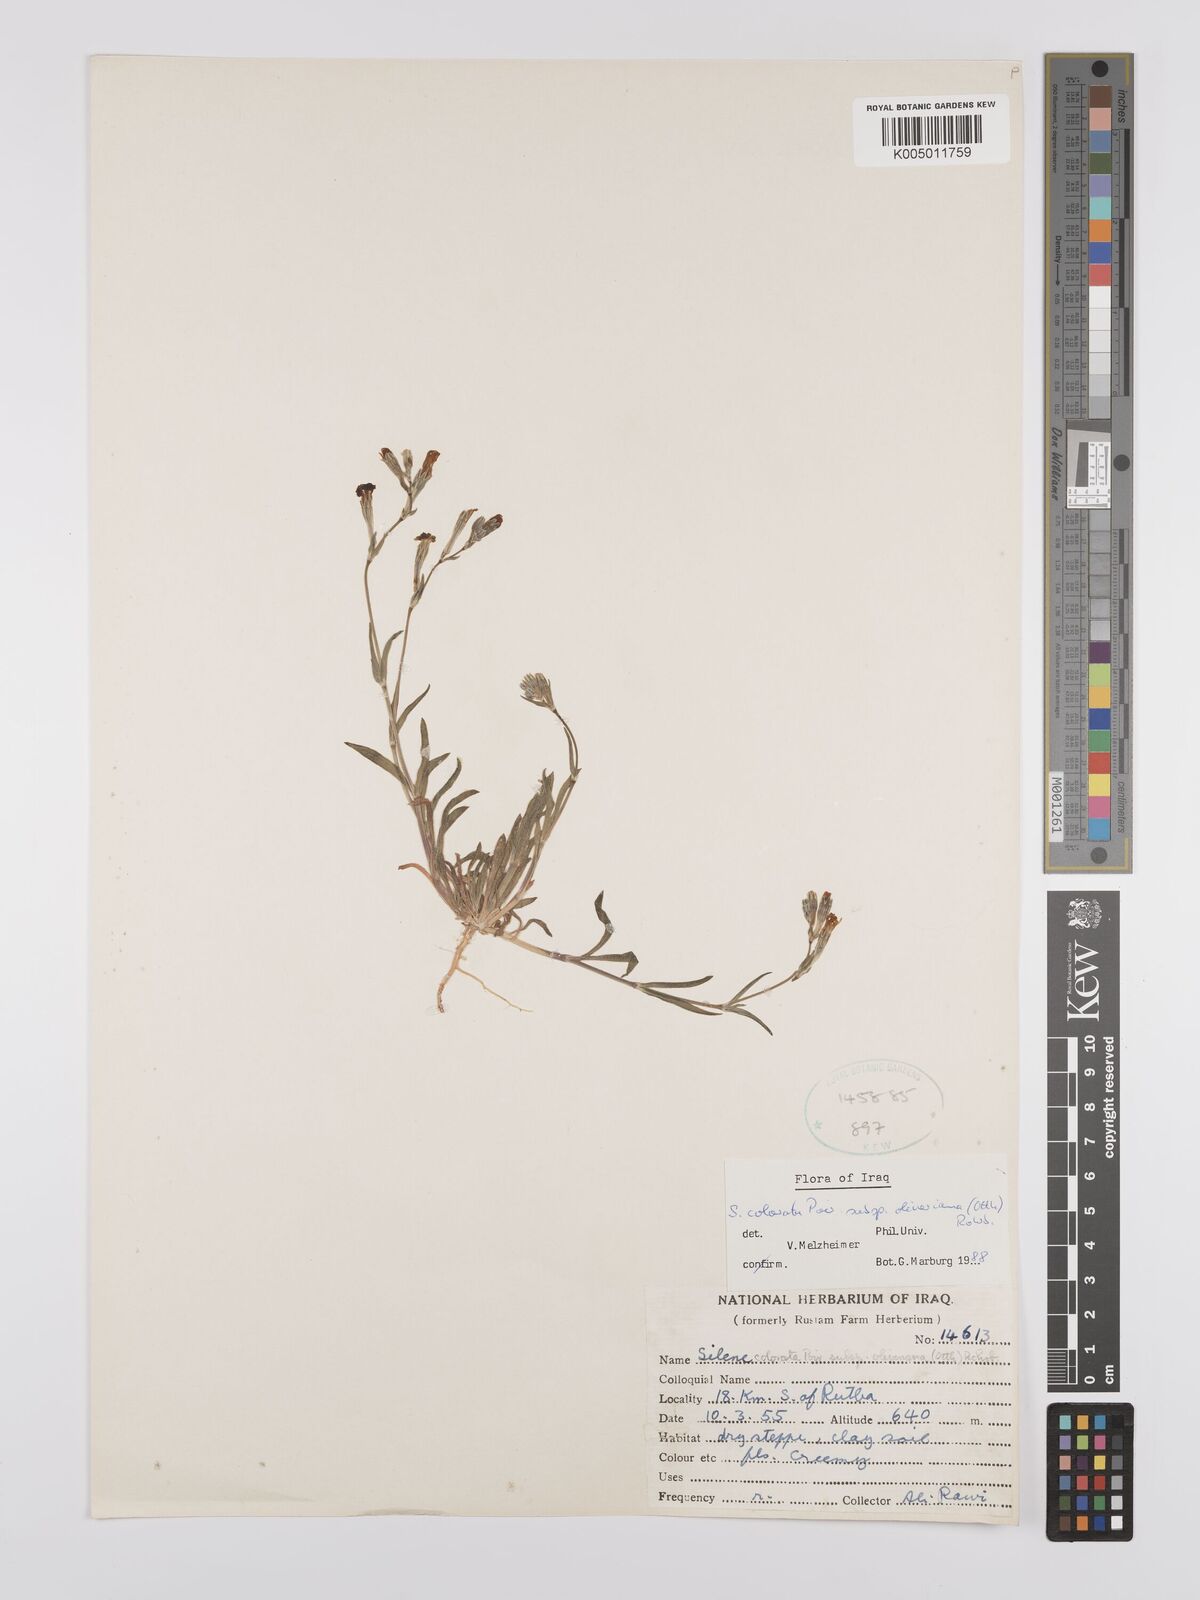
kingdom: Plantae
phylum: Tracheophyta
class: Magnoliopsida
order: Caryophyllales
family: Caryophyllaceae
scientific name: Caryophyllaceae
